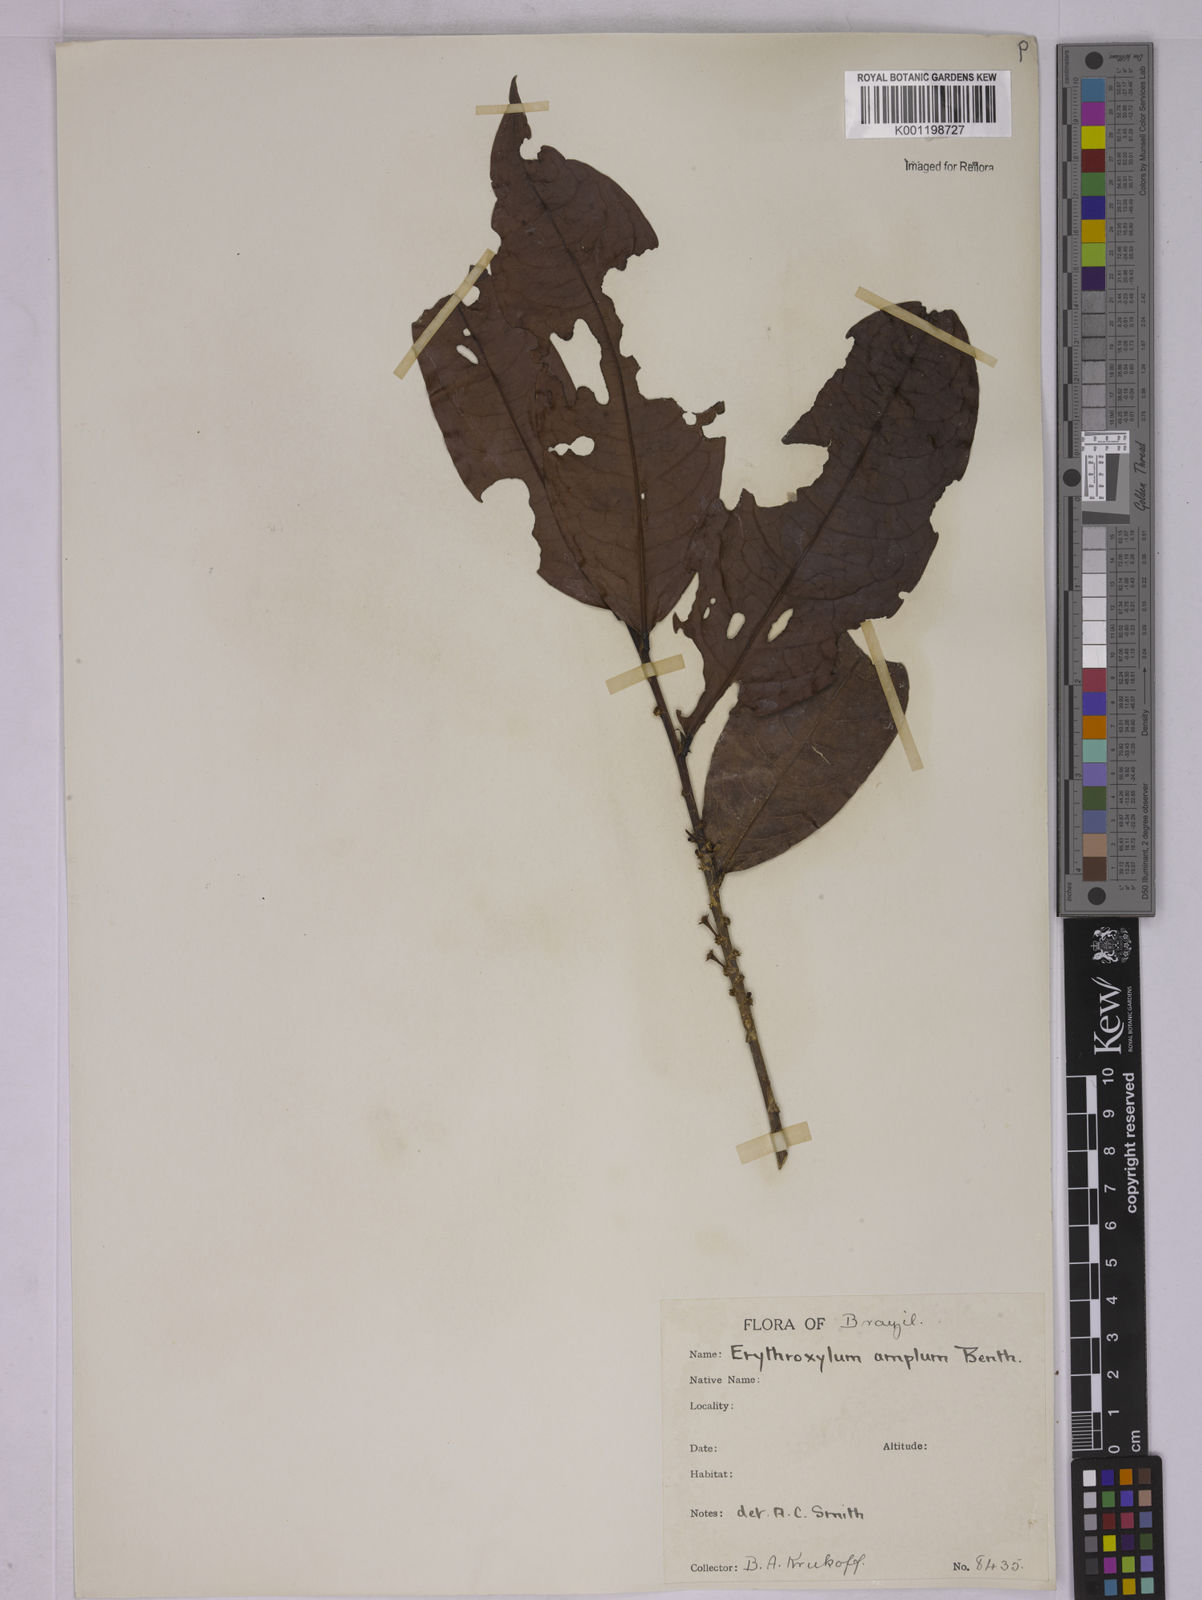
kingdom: Plantae
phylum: Tracheophyta
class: Magnoliopsida
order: Malpighiales
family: Erythroxylaceae
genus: Erythroxylum
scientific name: Erythroxylum amplum
